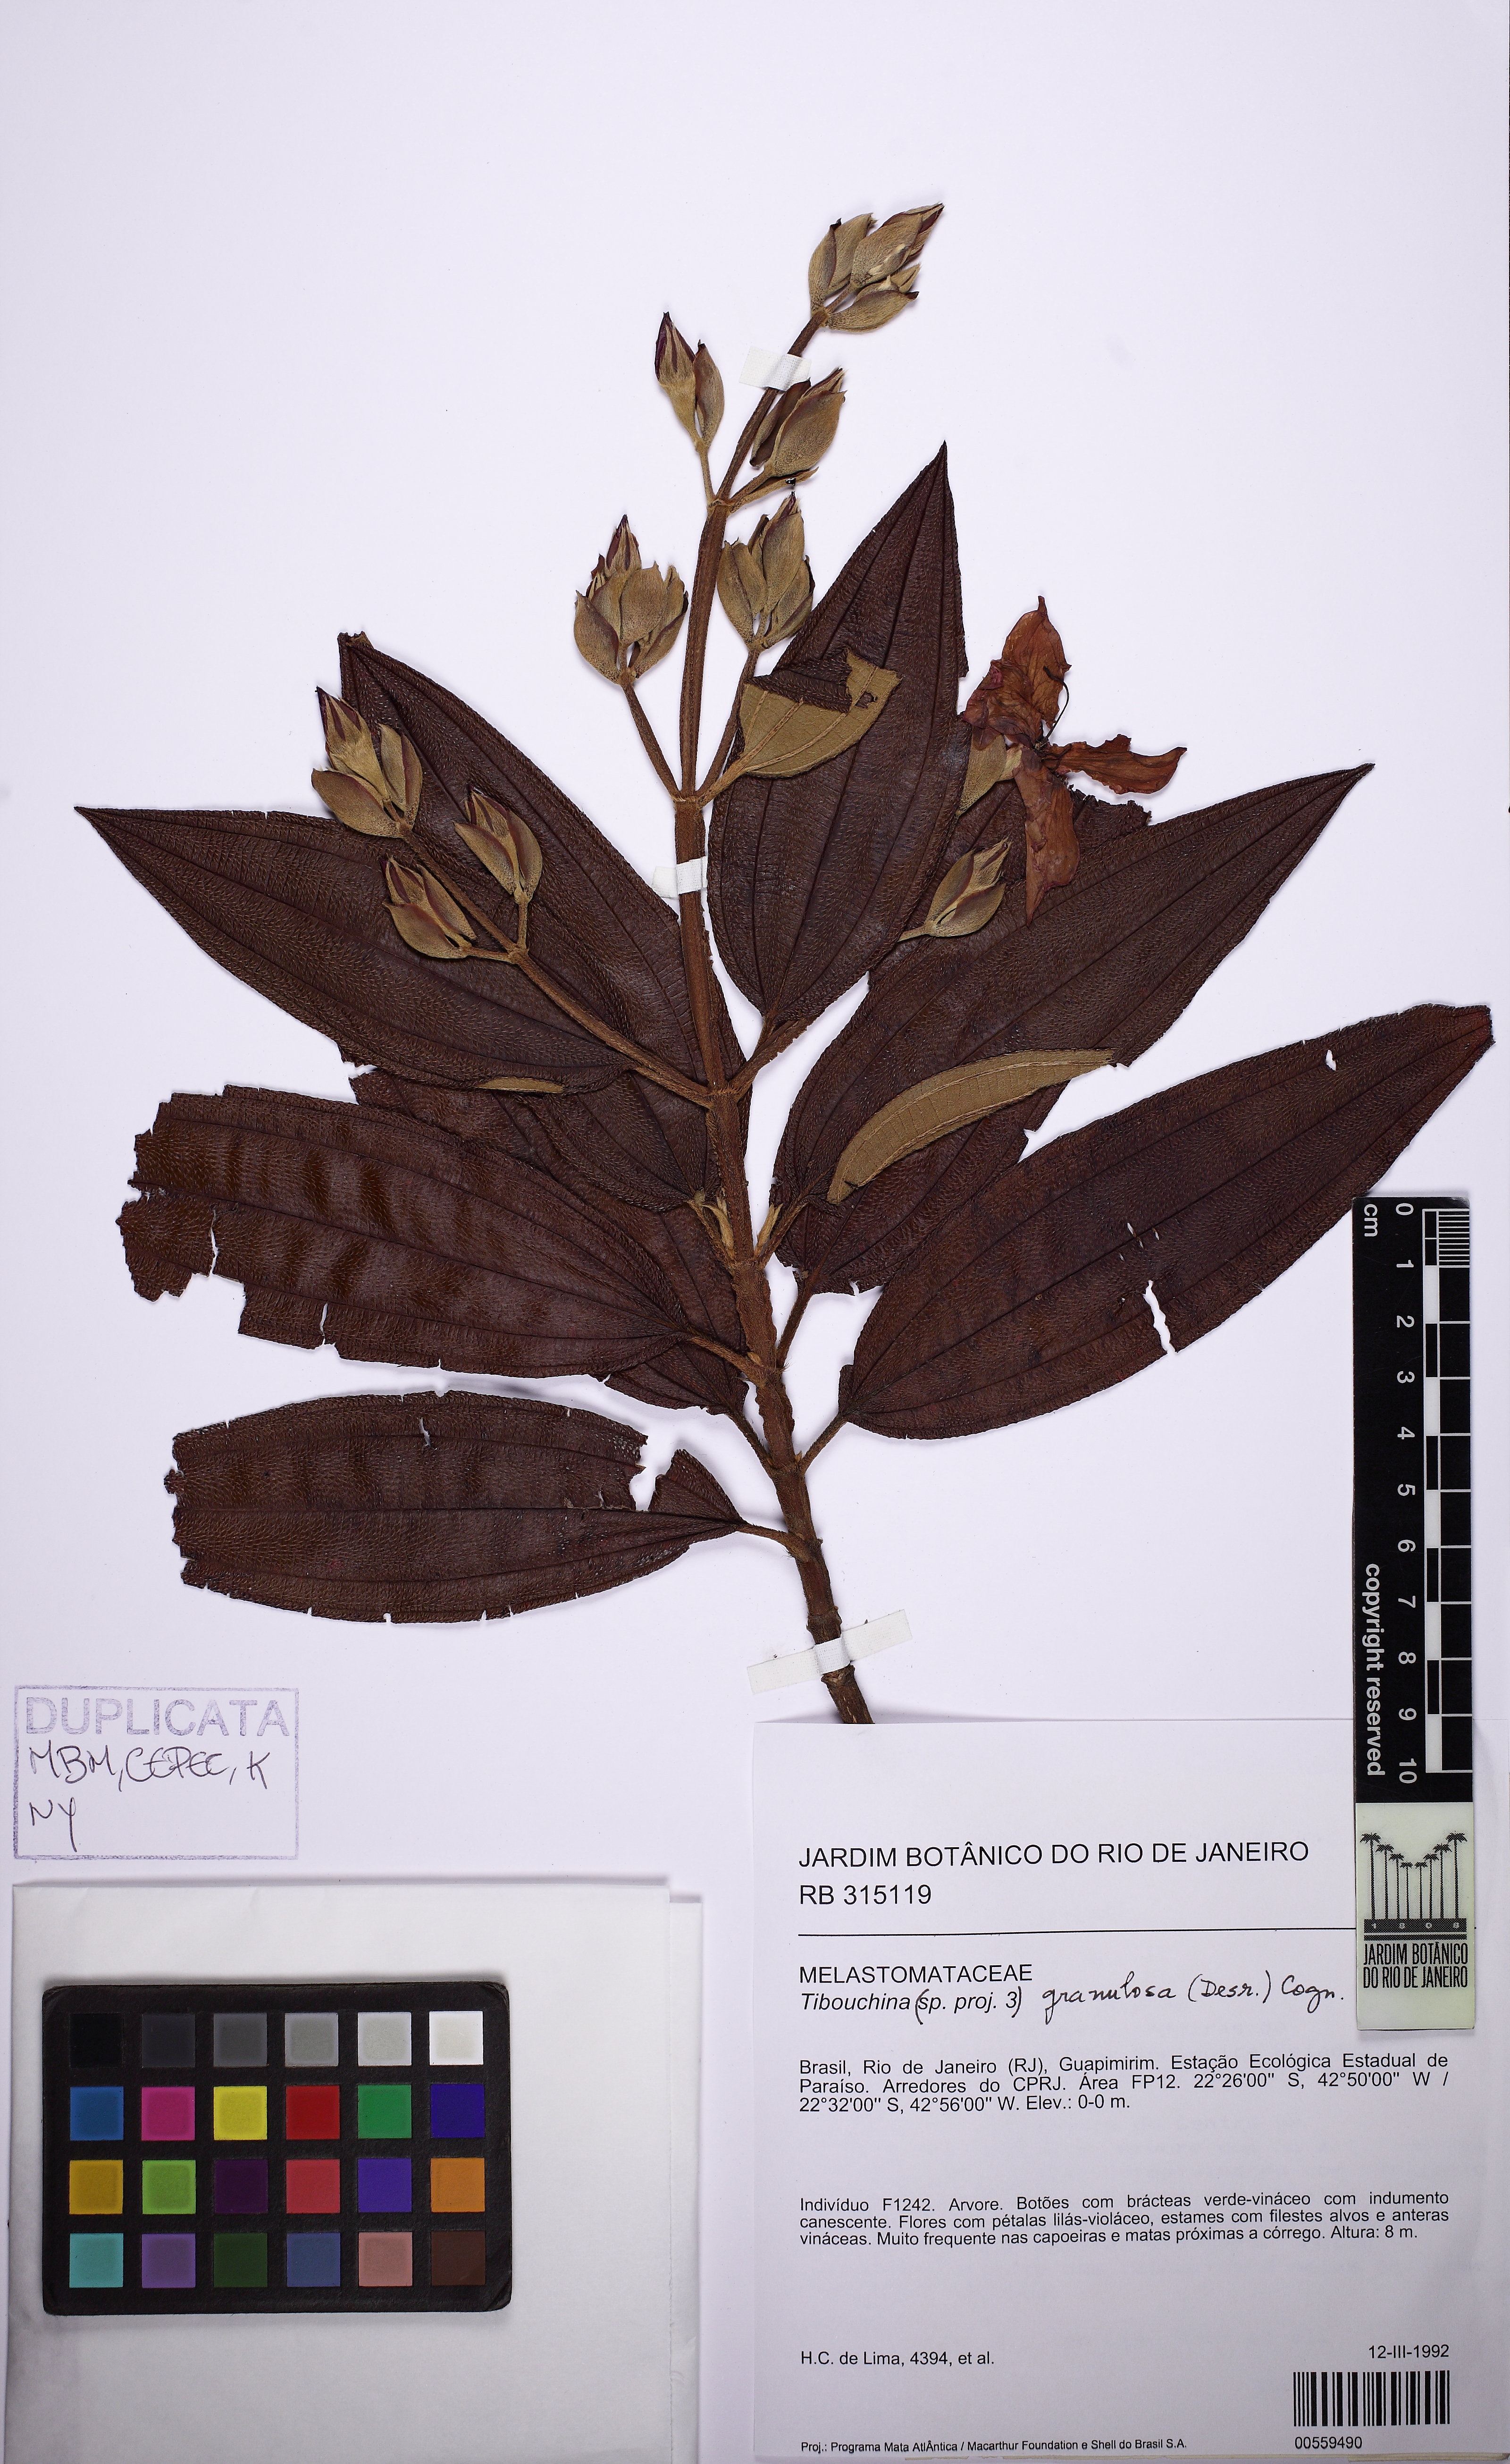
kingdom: Plantae
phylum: Tracheophyta
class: Magnoliopsida
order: Myrtales
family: Melastomataceae
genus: Pleroma
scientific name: Pleroma granulosum
